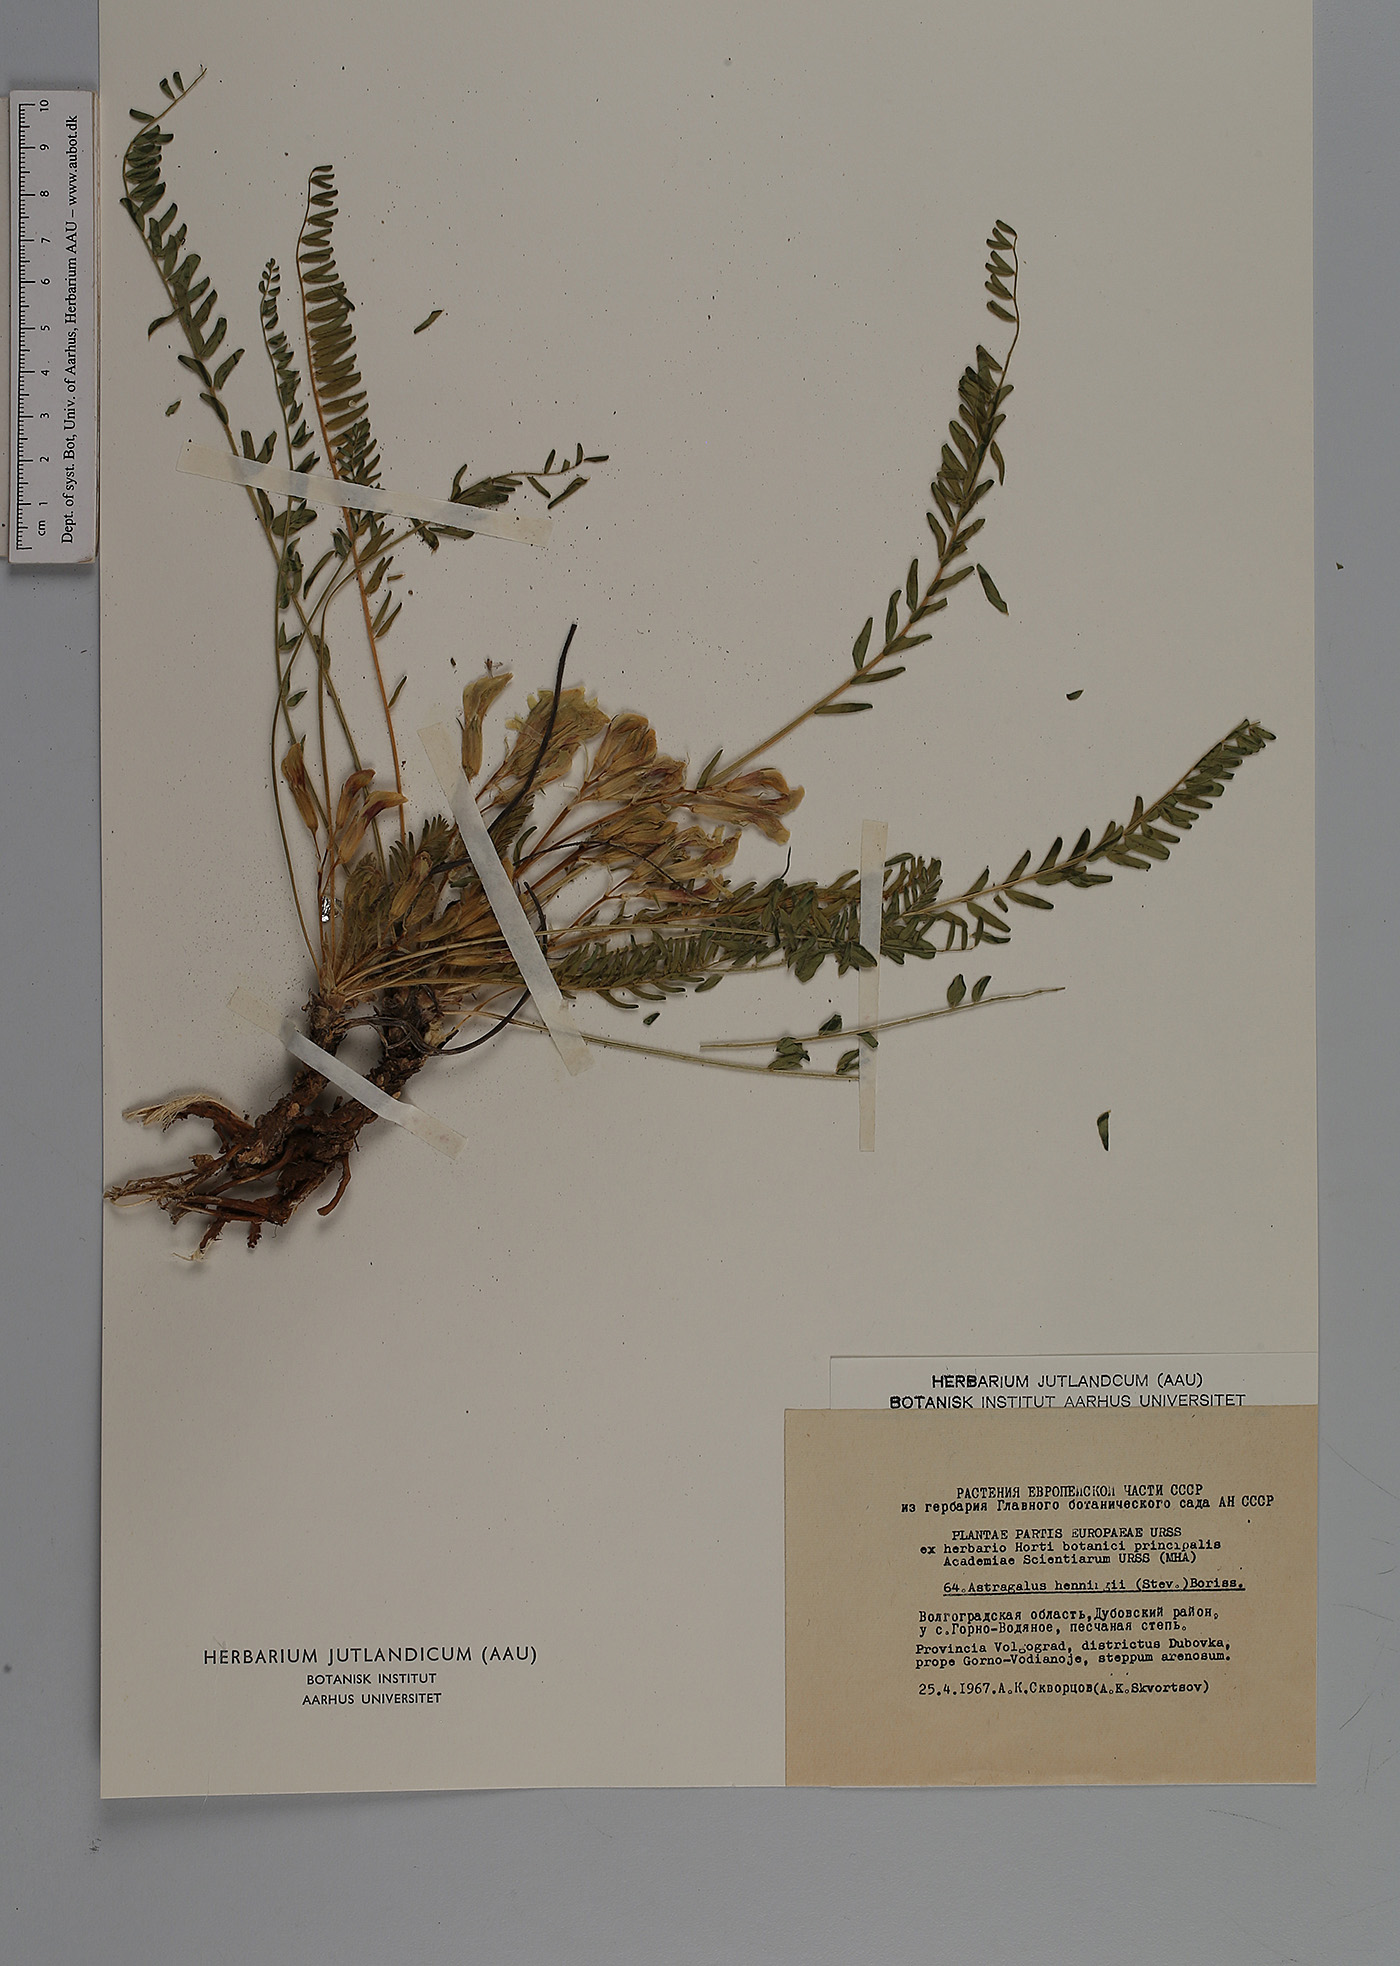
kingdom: Plantae
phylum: Tracheophyta
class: Magnoliopsida
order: Fabales
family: Fabaceae
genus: Astragalus
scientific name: Astragalus buchtormensis
